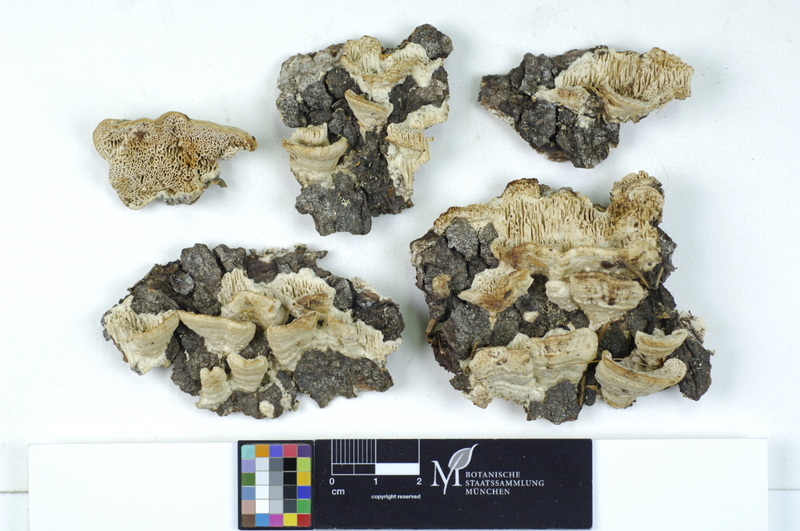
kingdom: Fungi
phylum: Basidiomycota
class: Agaricomycetes
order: Polyporales
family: Fomitopsidaceae
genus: Antrodia
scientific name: Antrodia heteromorpha
